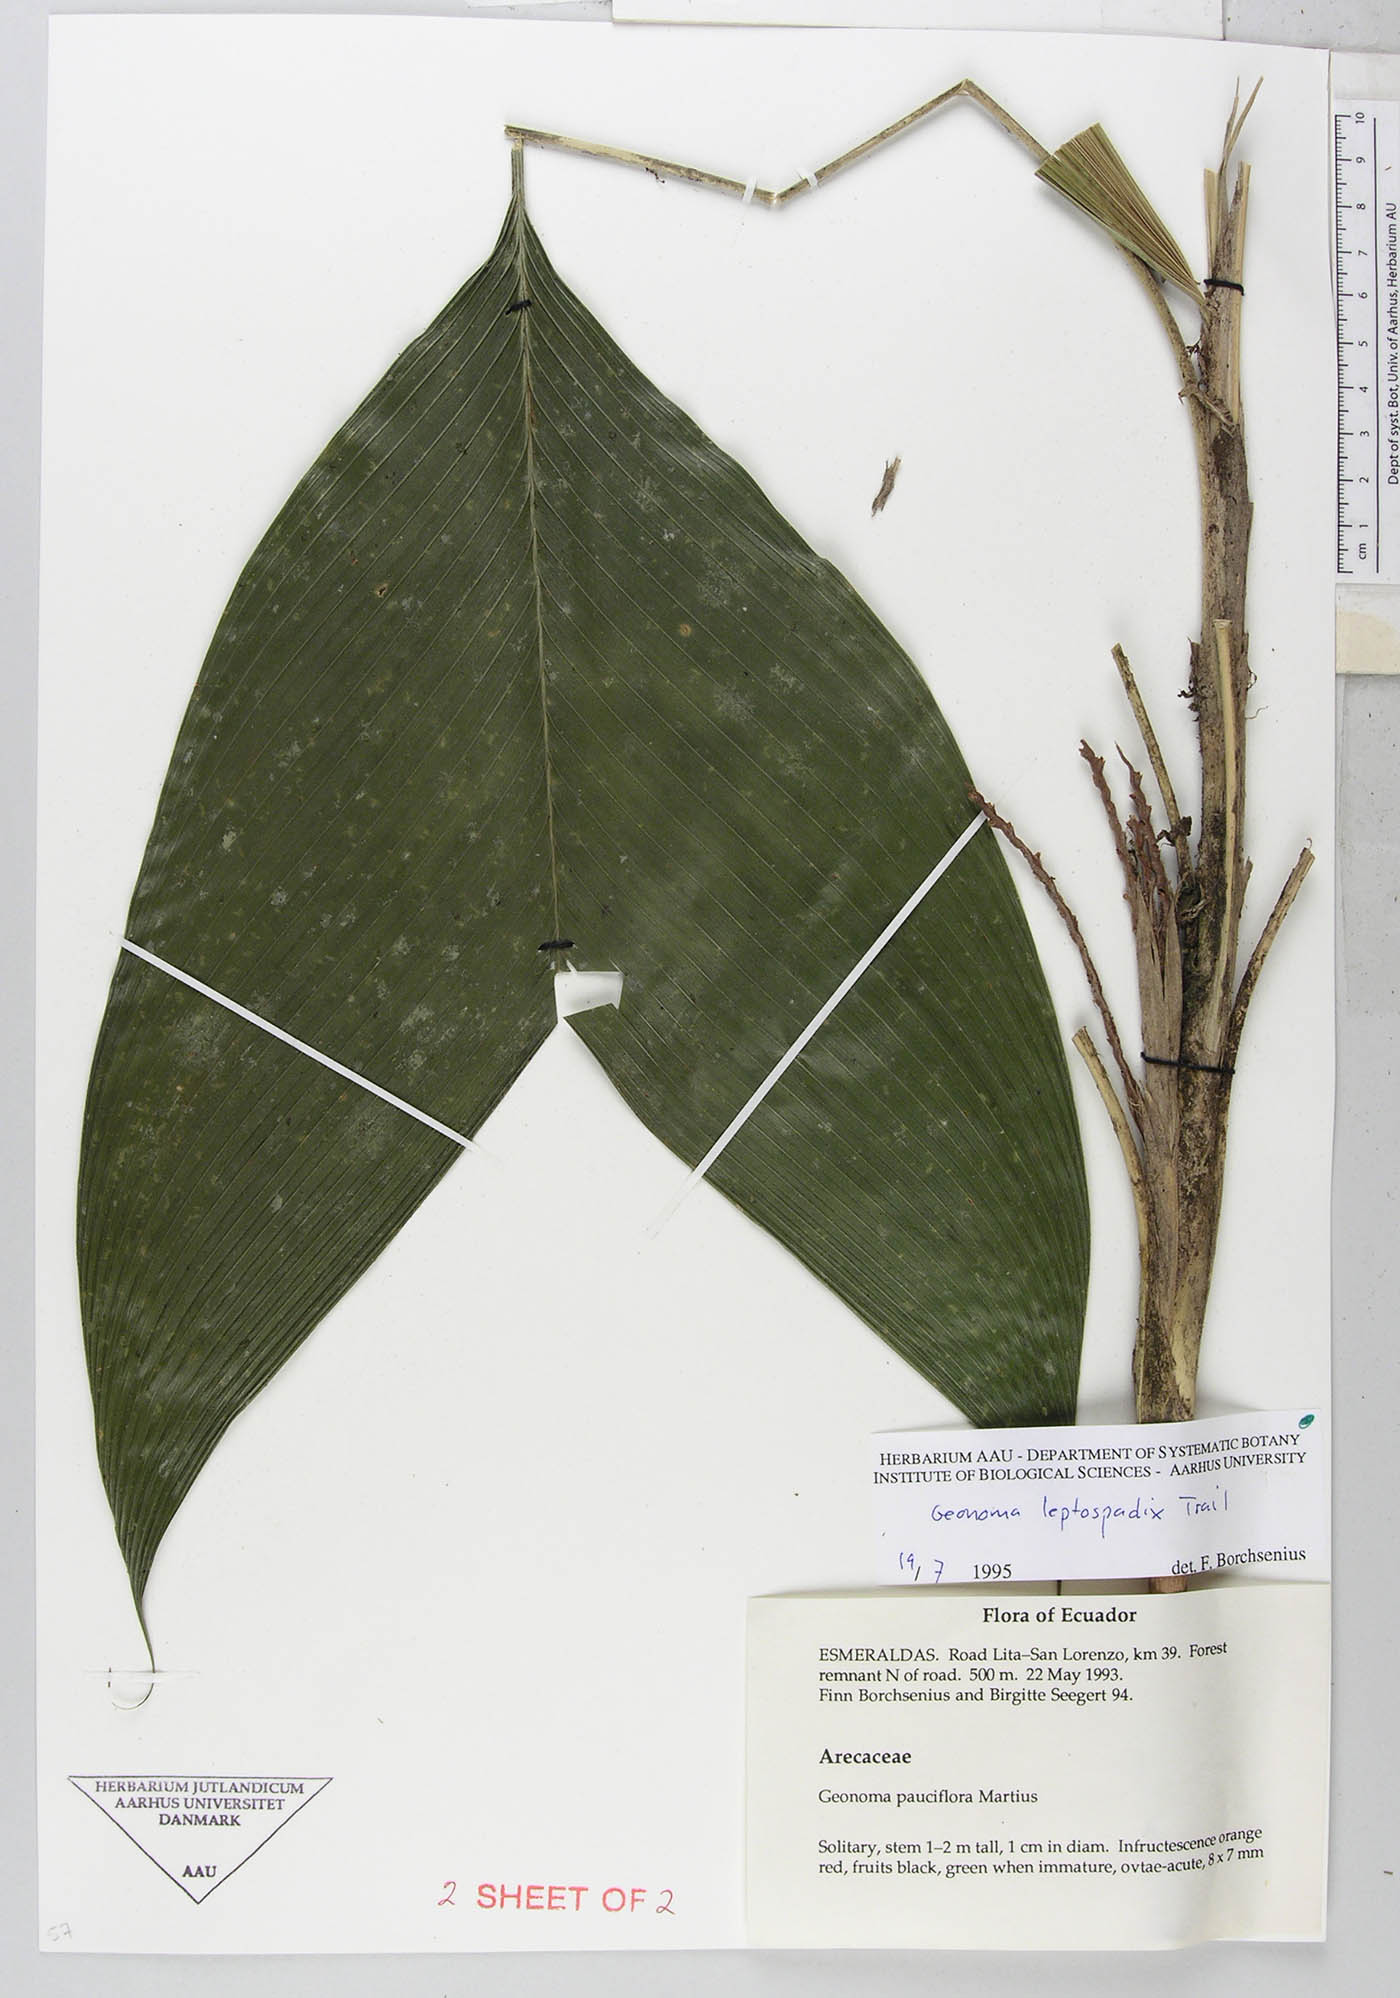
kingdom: Plantae
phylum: Tracheophyta
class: Liliopsida
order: Arecales
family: Arecaceae
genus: Geonoma
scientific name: Geonoma lanata
